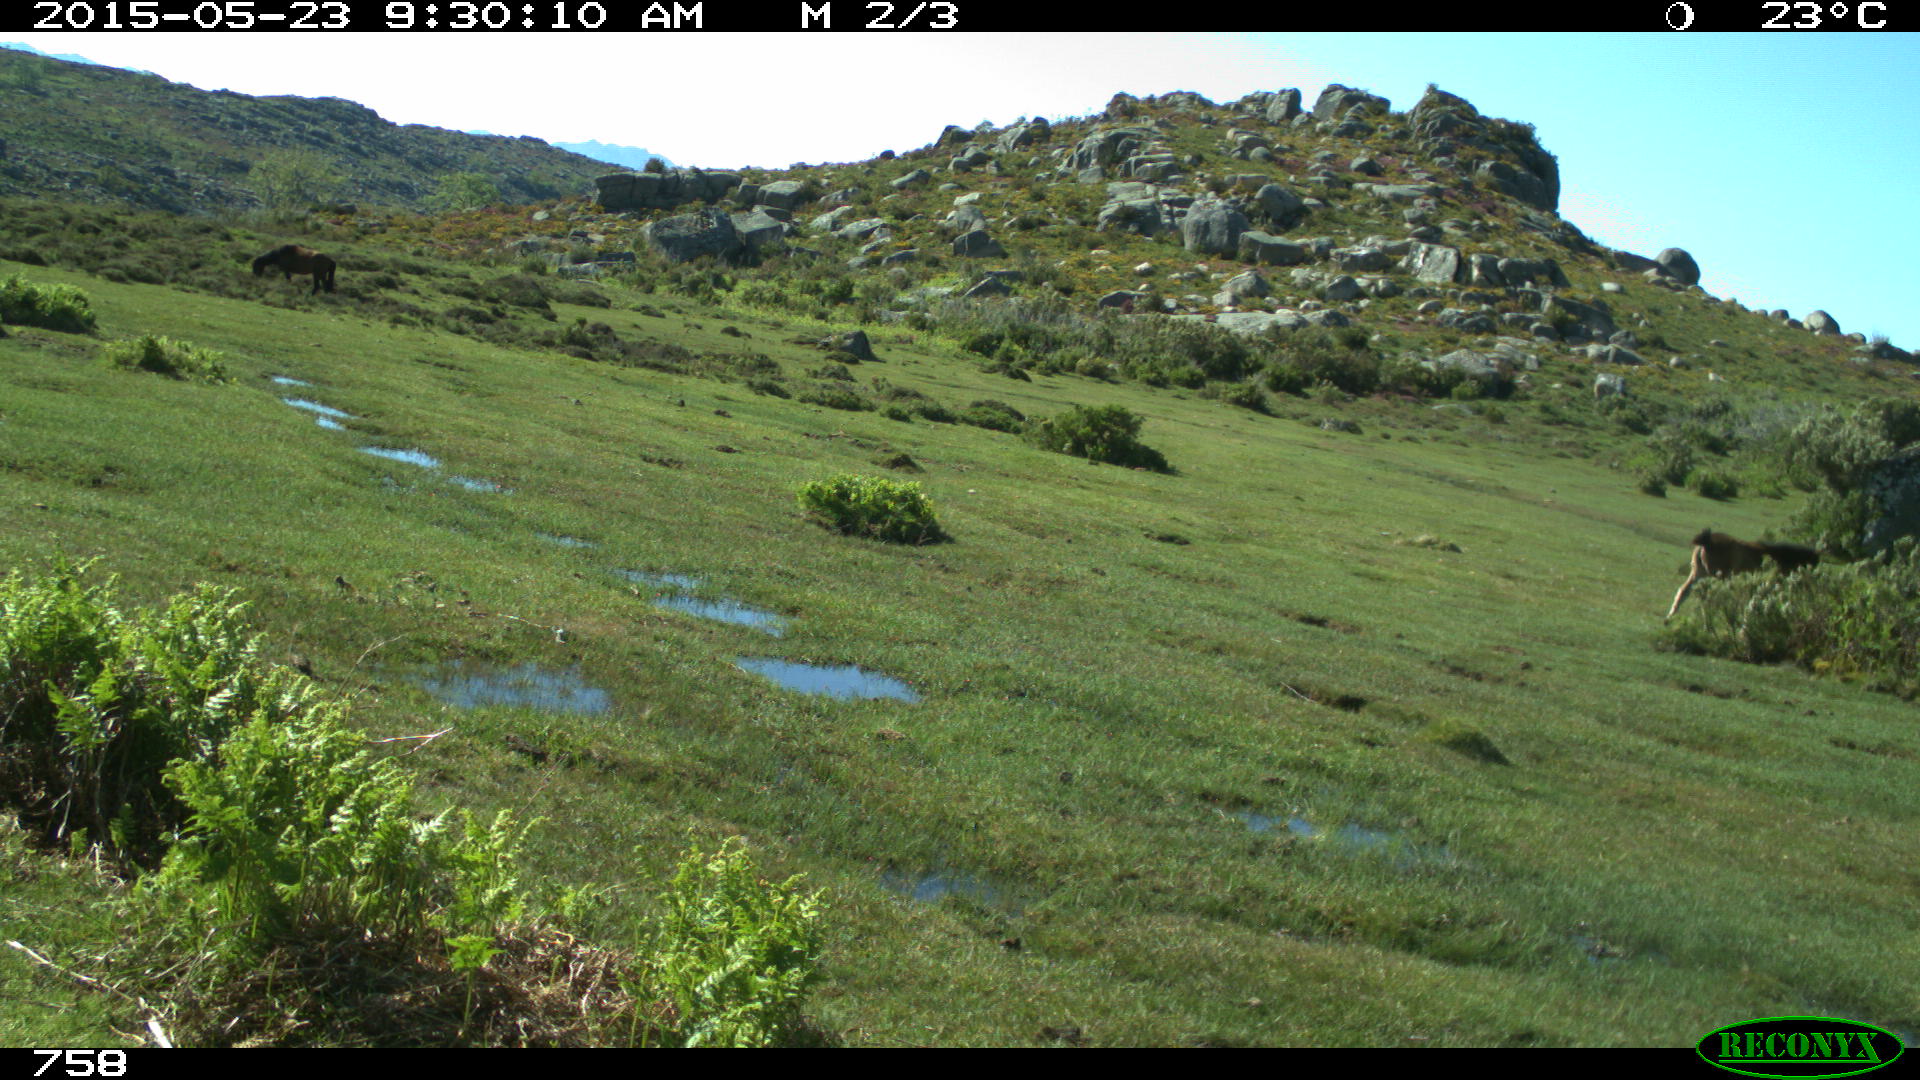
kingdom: Animalia
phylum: Chordata
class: Mammalia
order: Perissodactyla
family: Equidae
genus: Equus
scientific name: Equus caballus
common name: Horse
